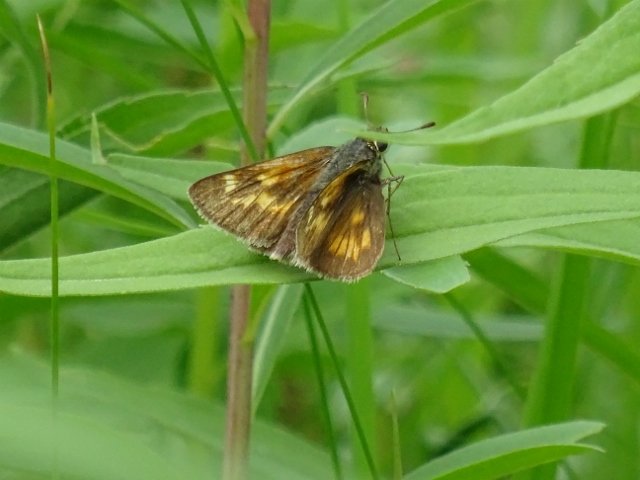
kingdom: Animalia
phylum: Arthropoda
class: Insecta
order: Lepidoptera
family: Hesperiidae
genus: Polites
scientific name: Polites
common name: Long Dash Skipper
